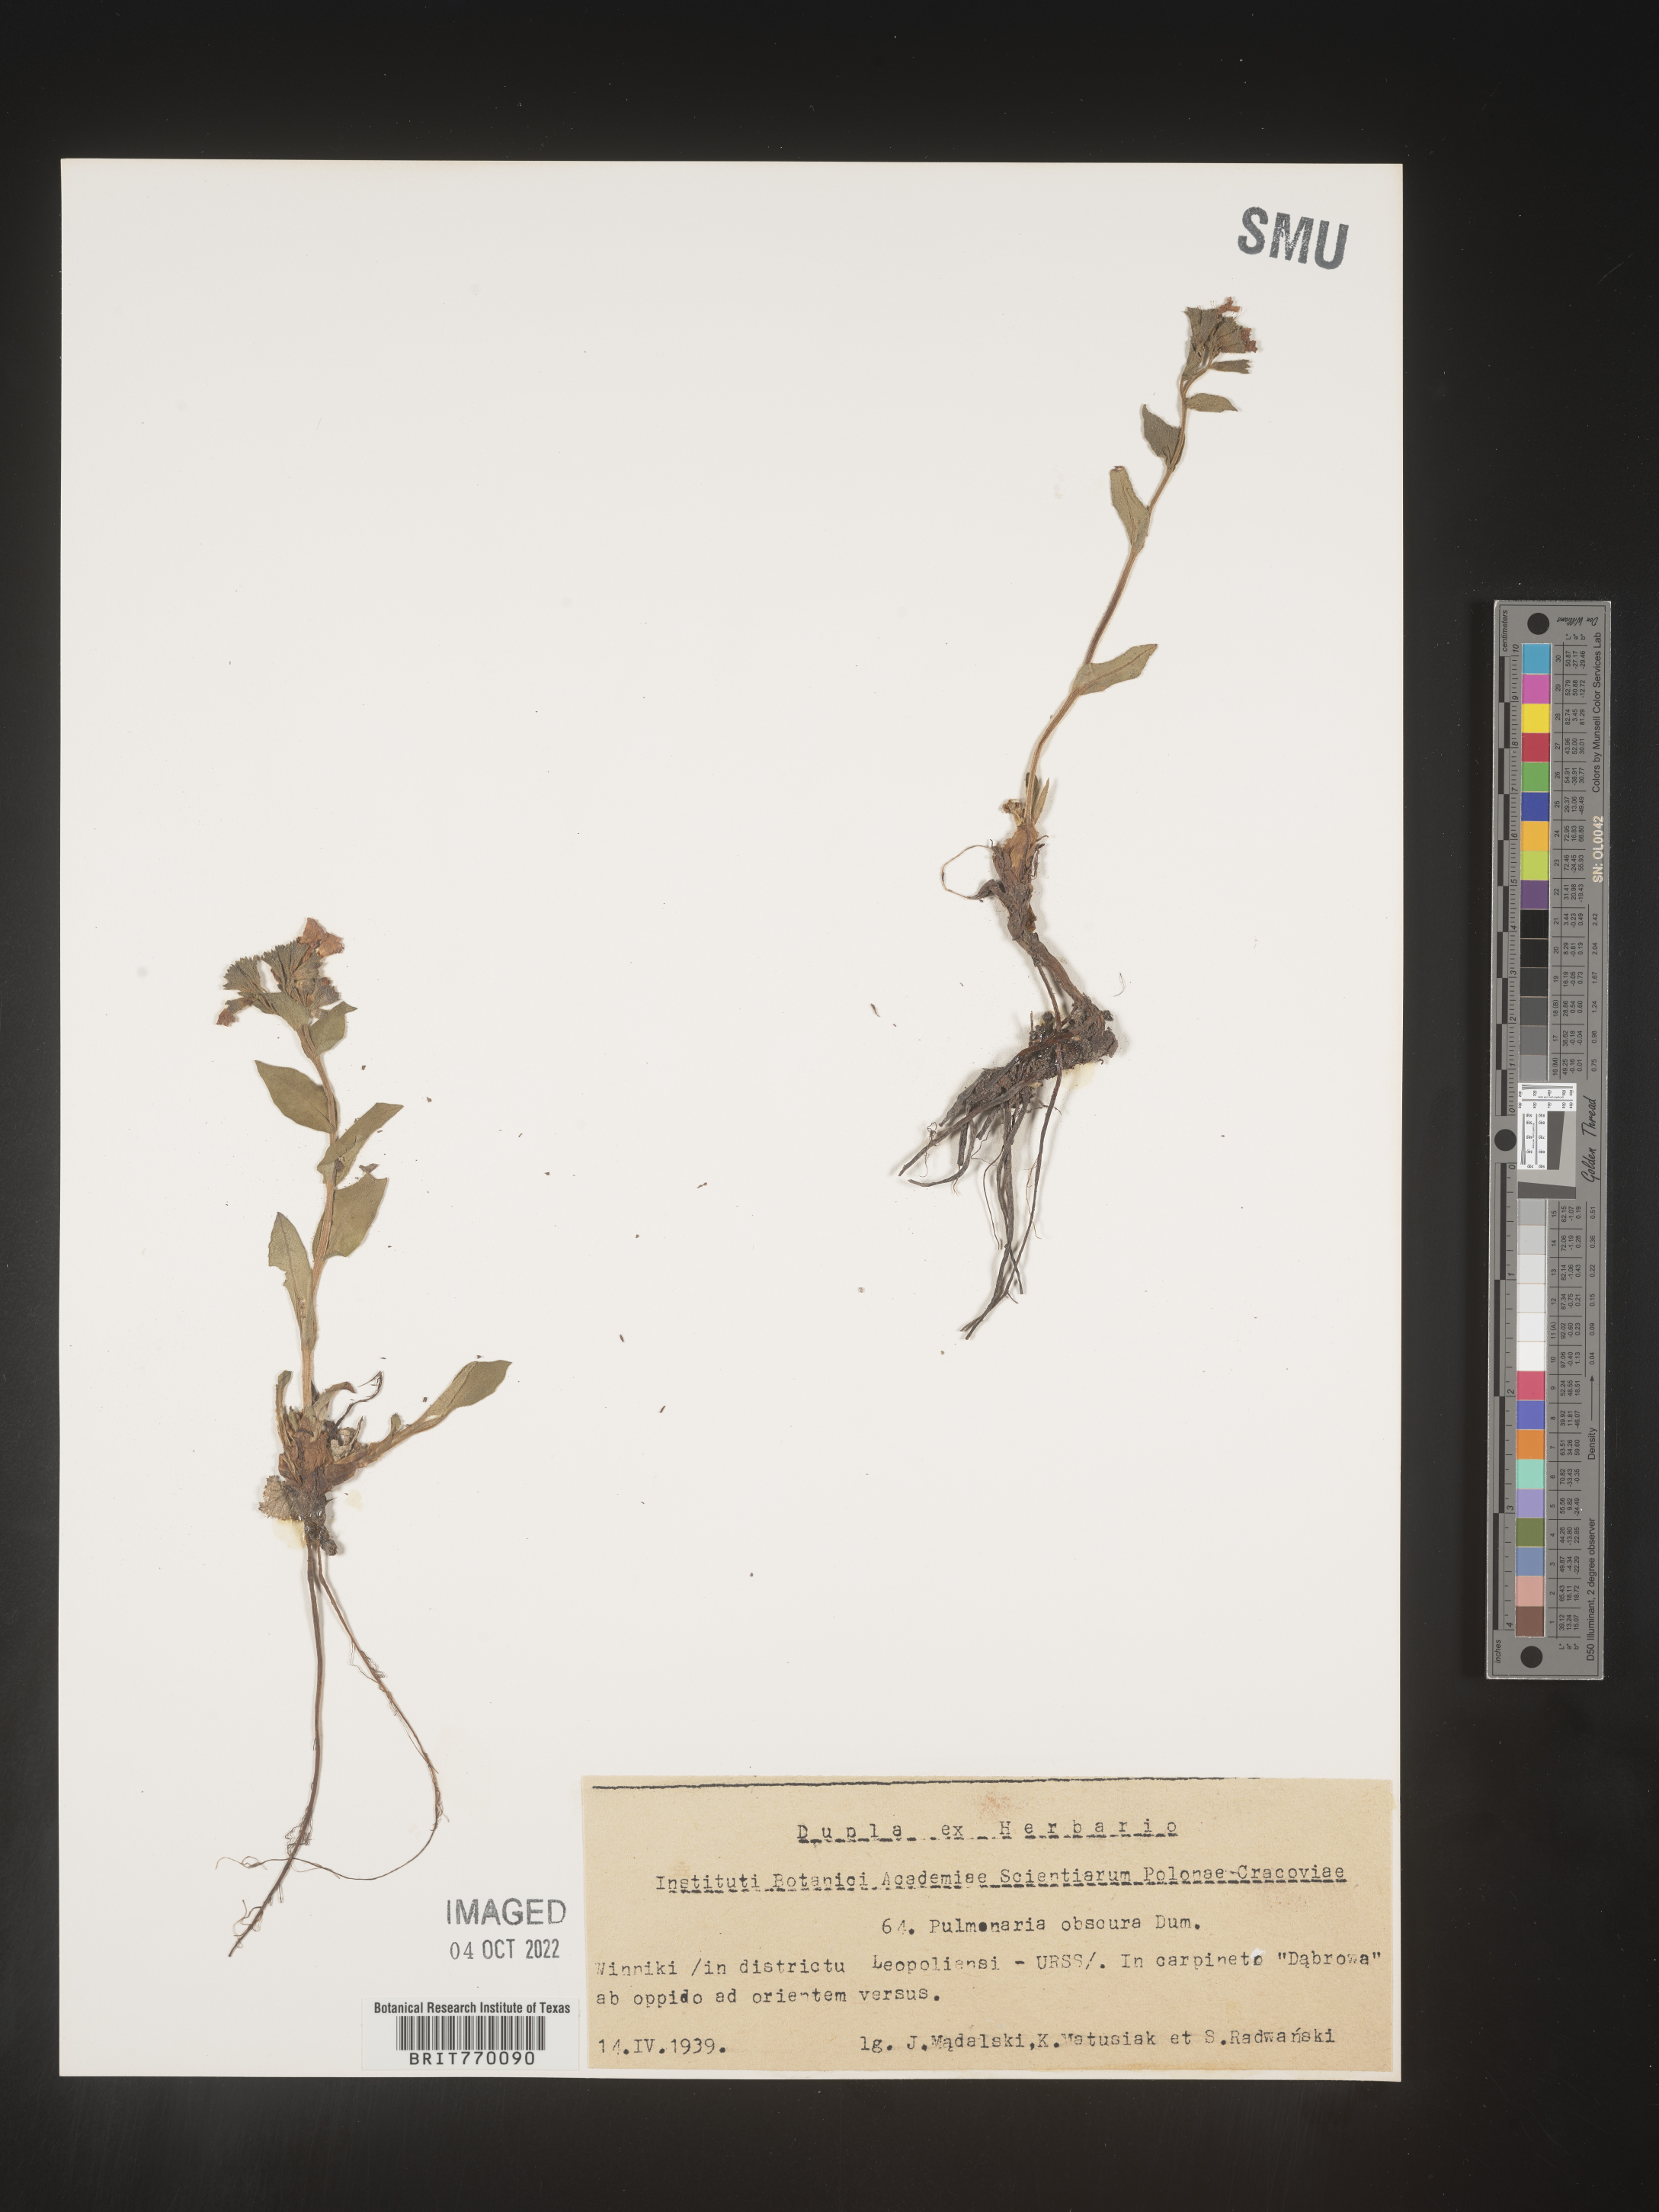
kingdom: Plantae
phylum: Tracheophyta
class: Magnoliopsida
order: Boraginales
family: Boraginaceae
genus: Pulmonaria
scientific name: Pulmonaria
